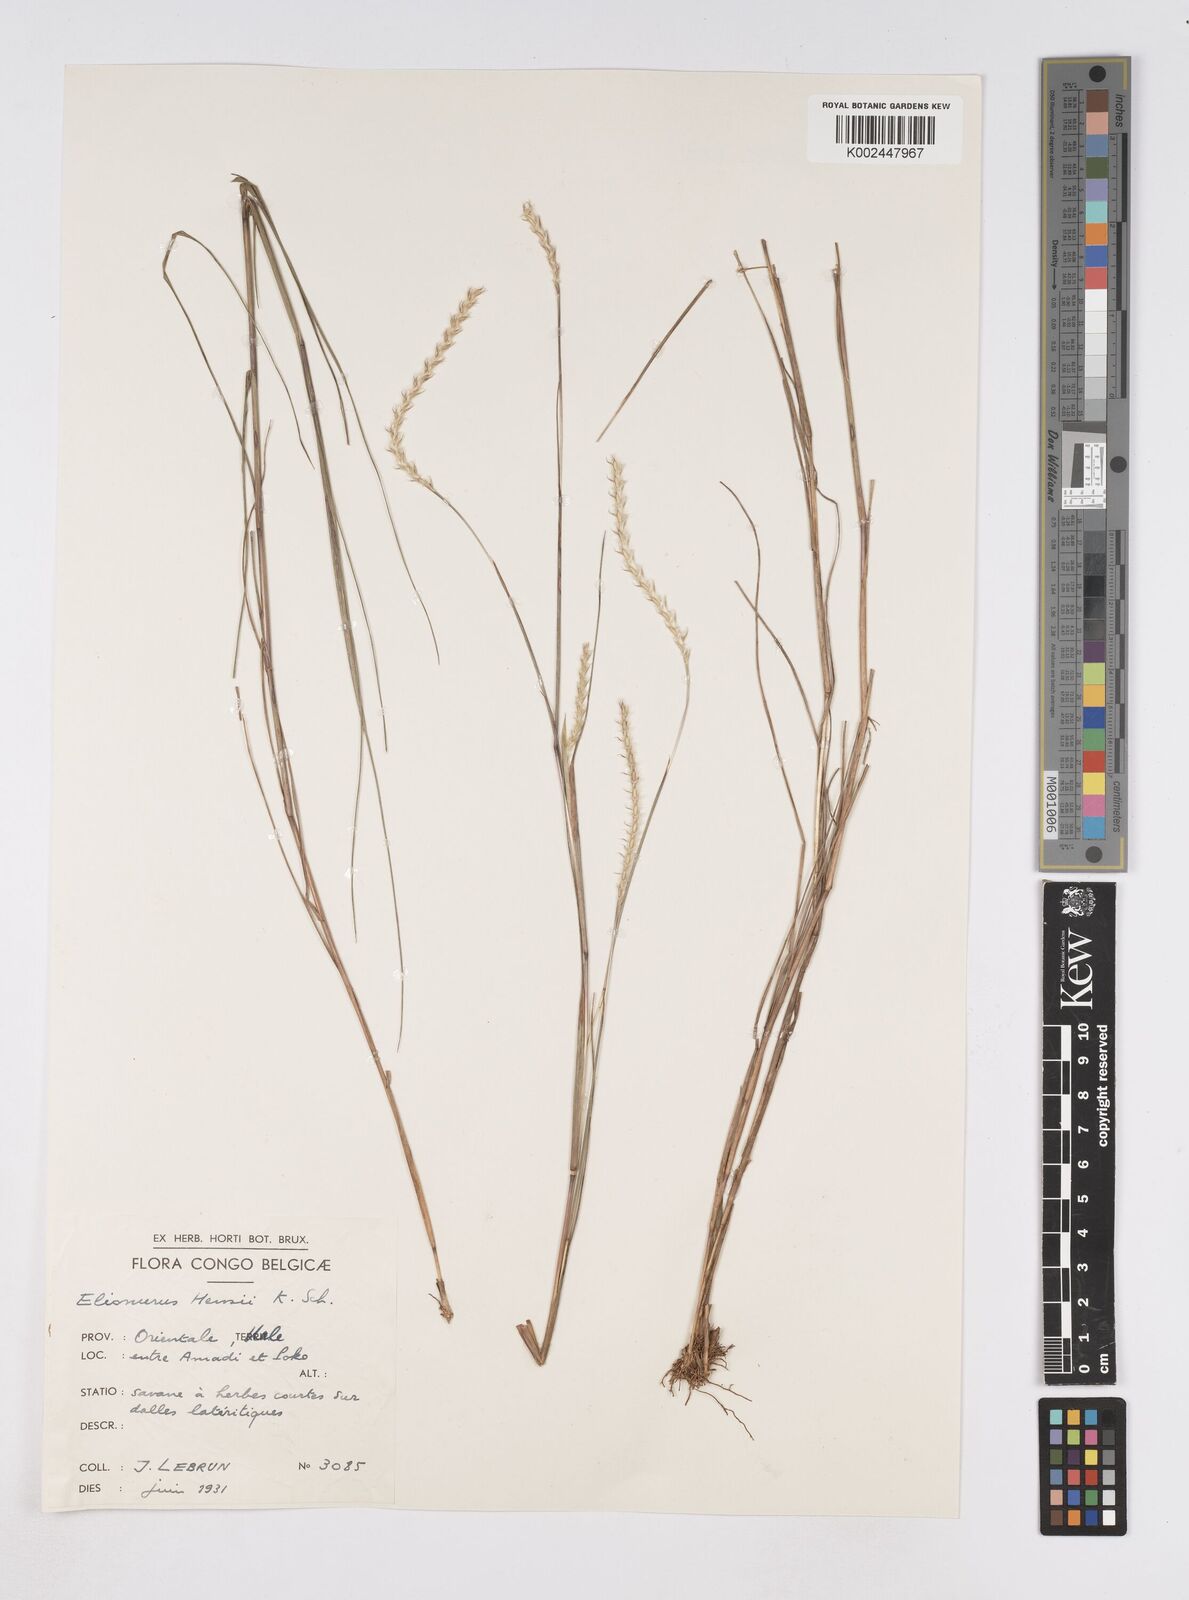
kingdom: Plantae
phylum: Tracheophyta
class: Liliopsida
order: Poales
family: Poaceae
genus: Elionurus
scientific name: Elionurus hensii
